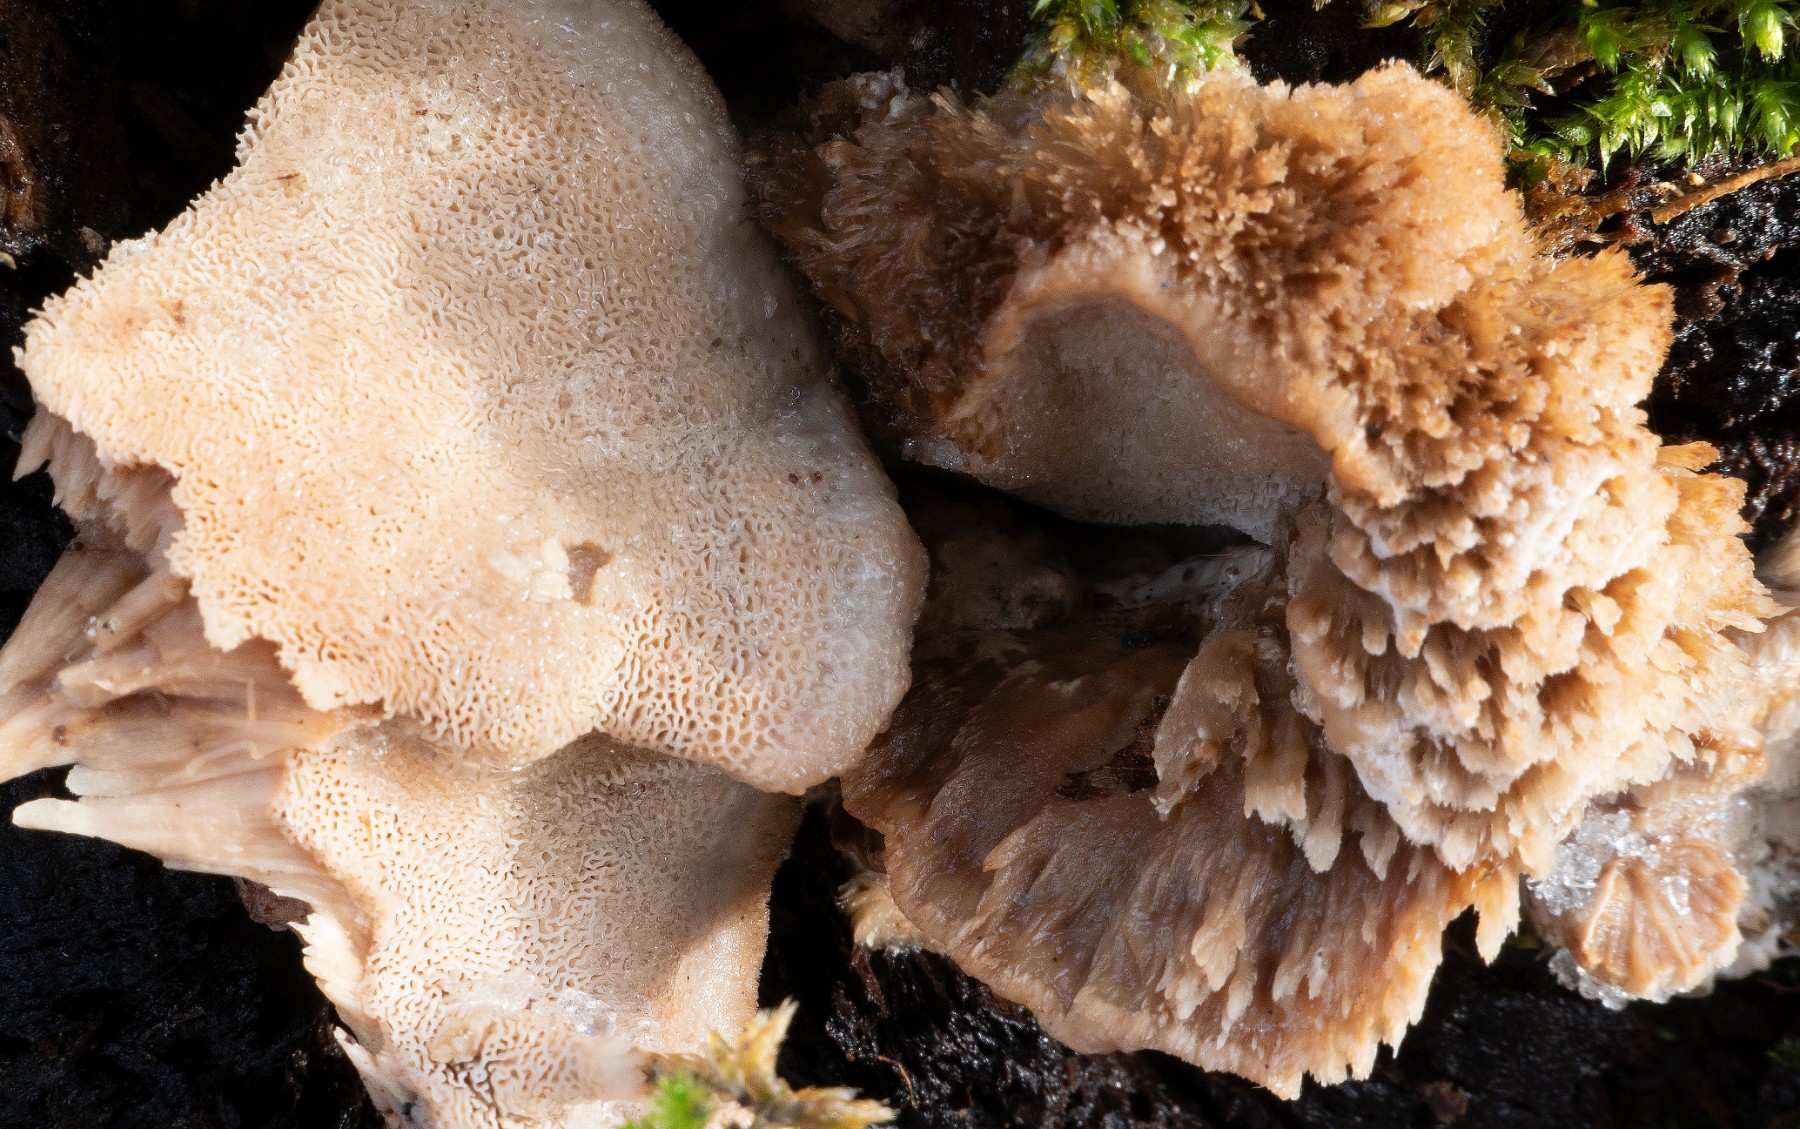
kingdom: Fungi
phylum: Basidiomycota
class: Agaricomycetes
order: Polyporales
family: Phanerochaetaceae
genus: Bjerkandera
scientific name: Bjerkandera fumosa
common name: grågul sodporesvamp
